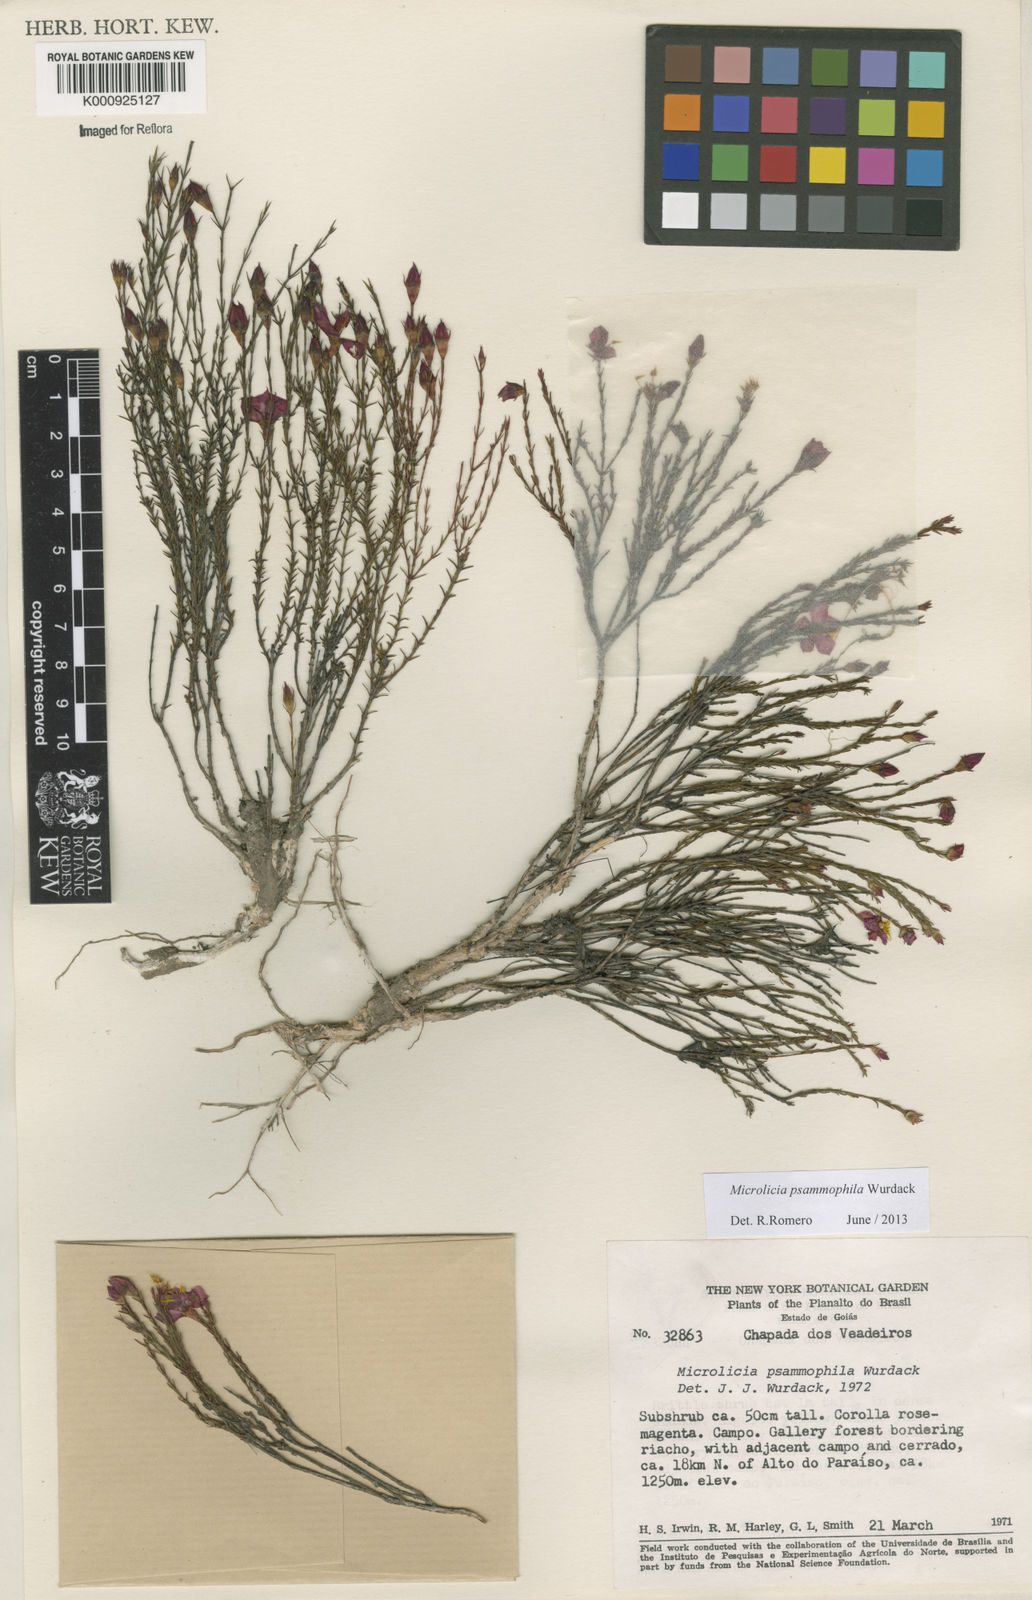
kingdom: Plantae
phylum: Tracheophyta
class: Magnoliopsida
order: Myrtales
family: Melastomataceae
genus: Microlicia
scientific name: Microlicia psammophila
